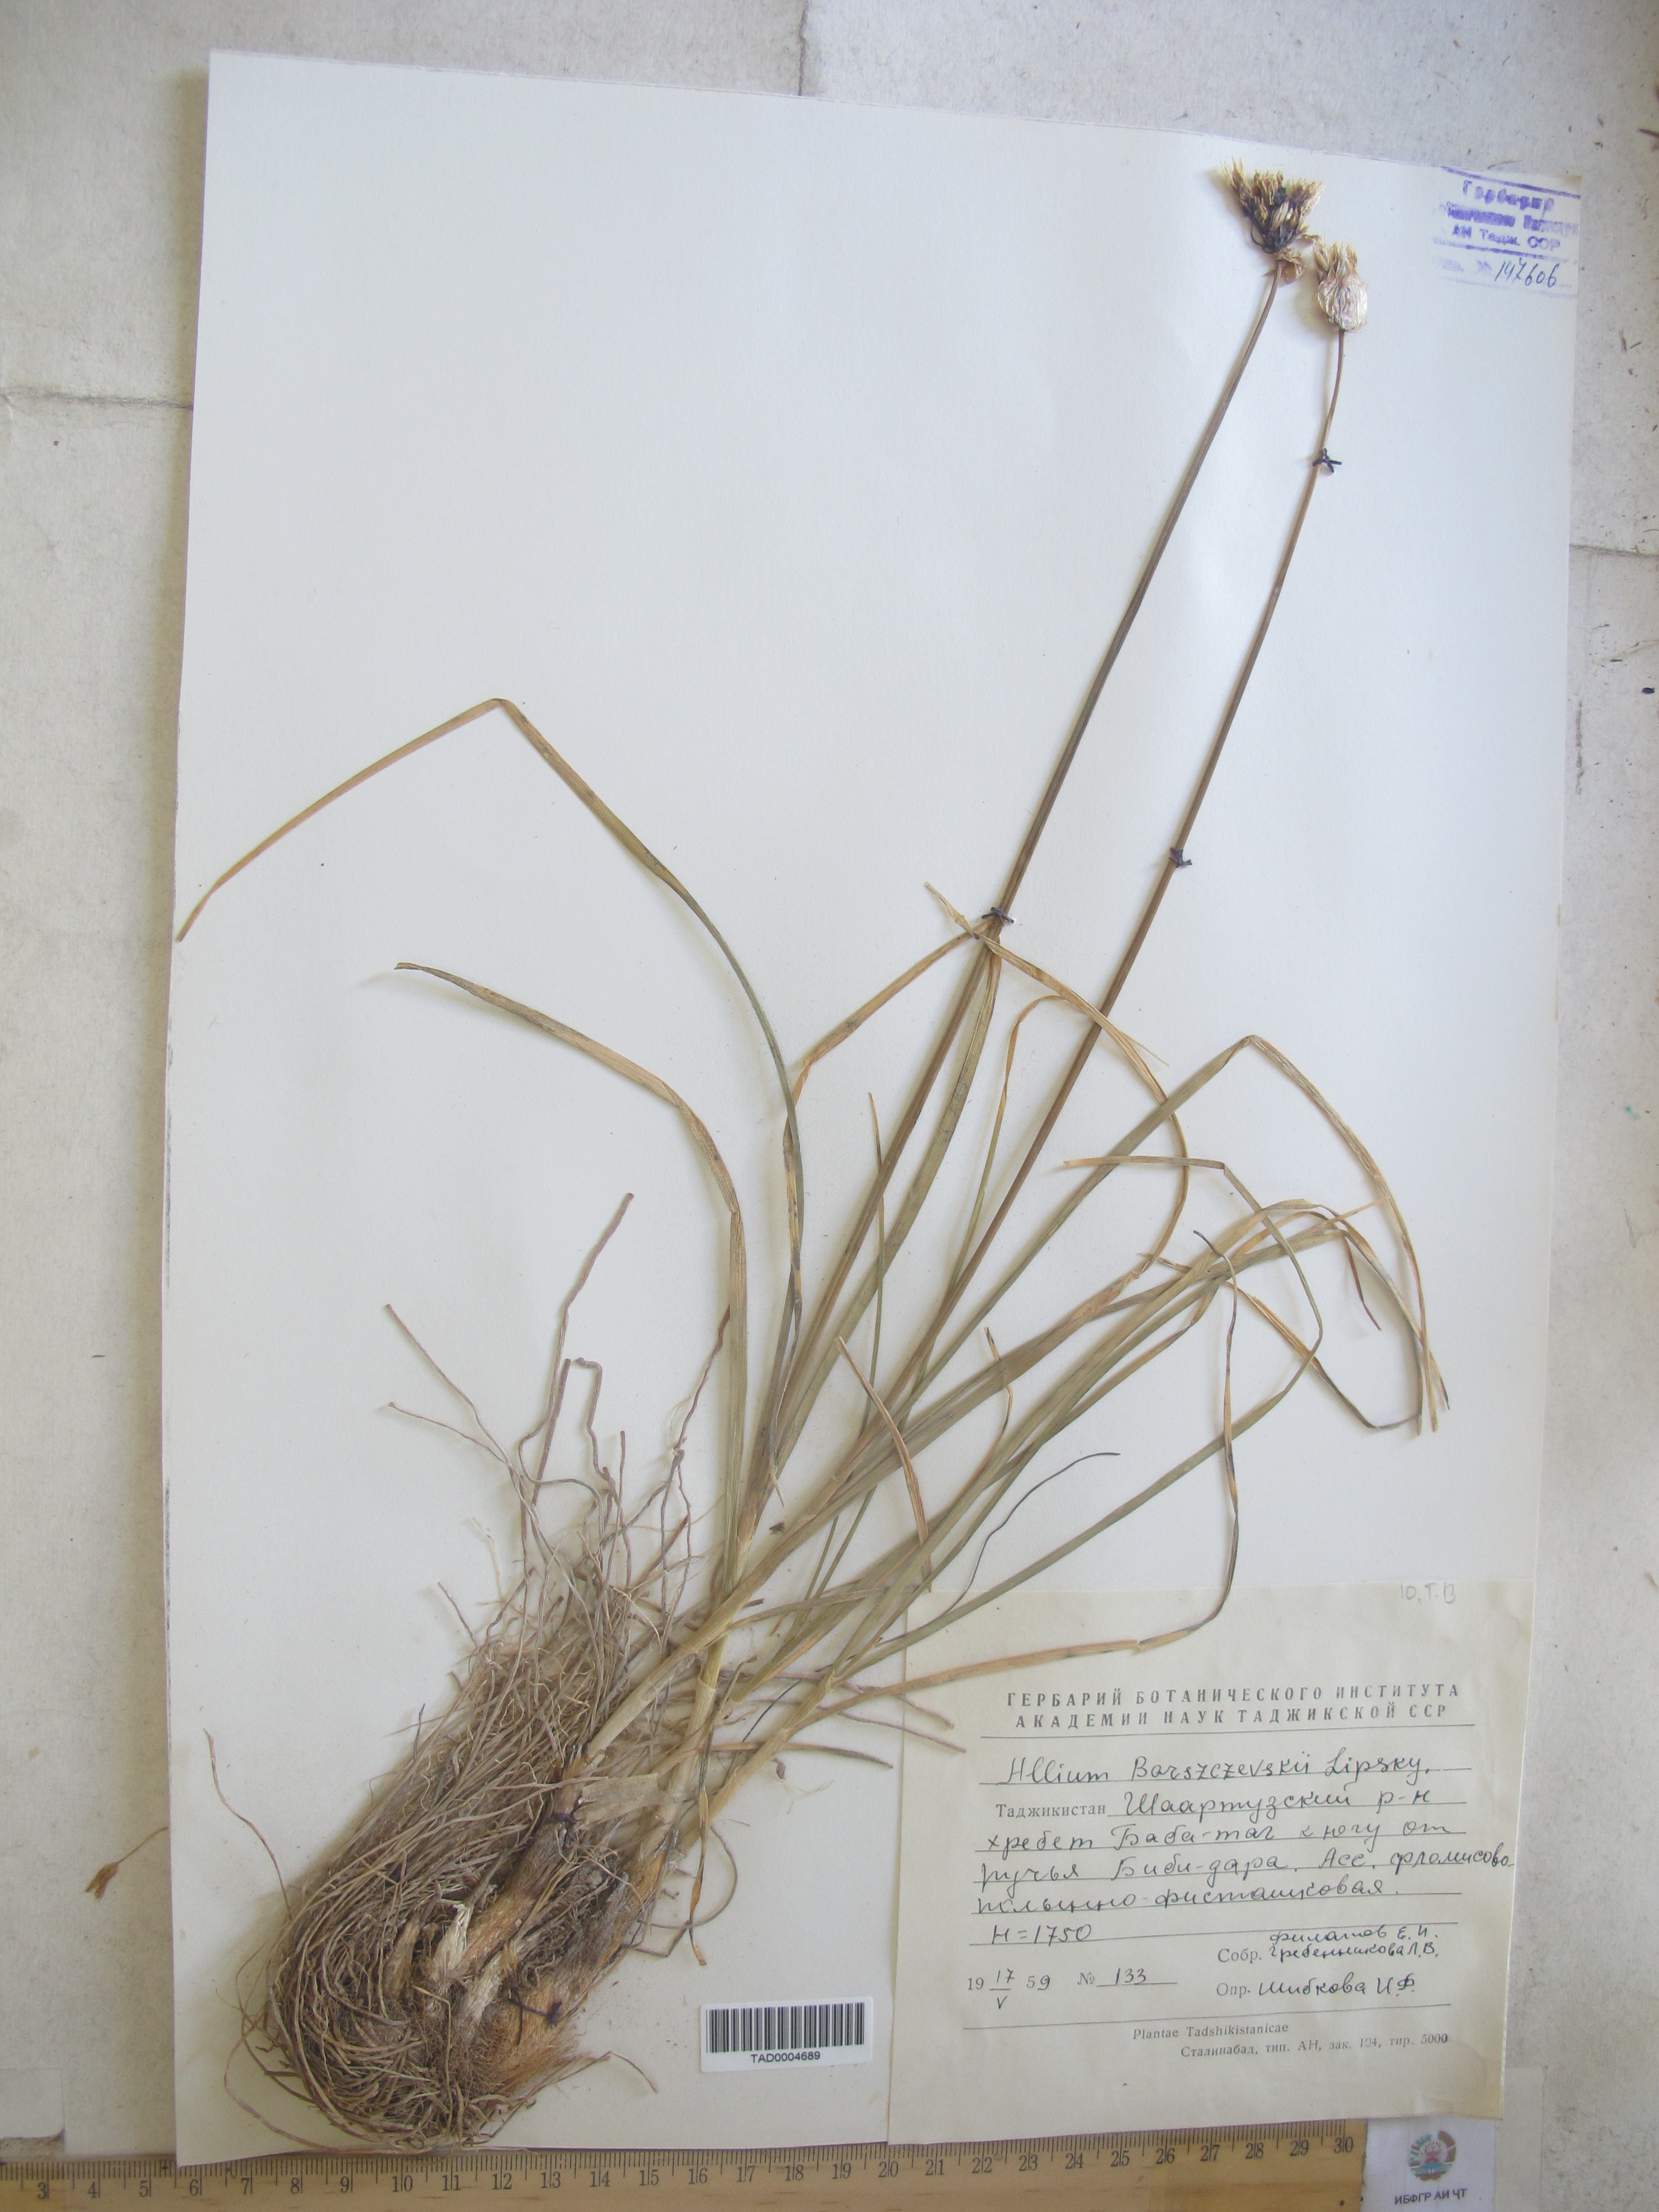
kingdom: Plantae
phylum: Tracheophyta
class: Liliopsida
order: Asparagales
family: Amaryllidaceae
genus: Allium
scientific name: Allium barsczewskii
